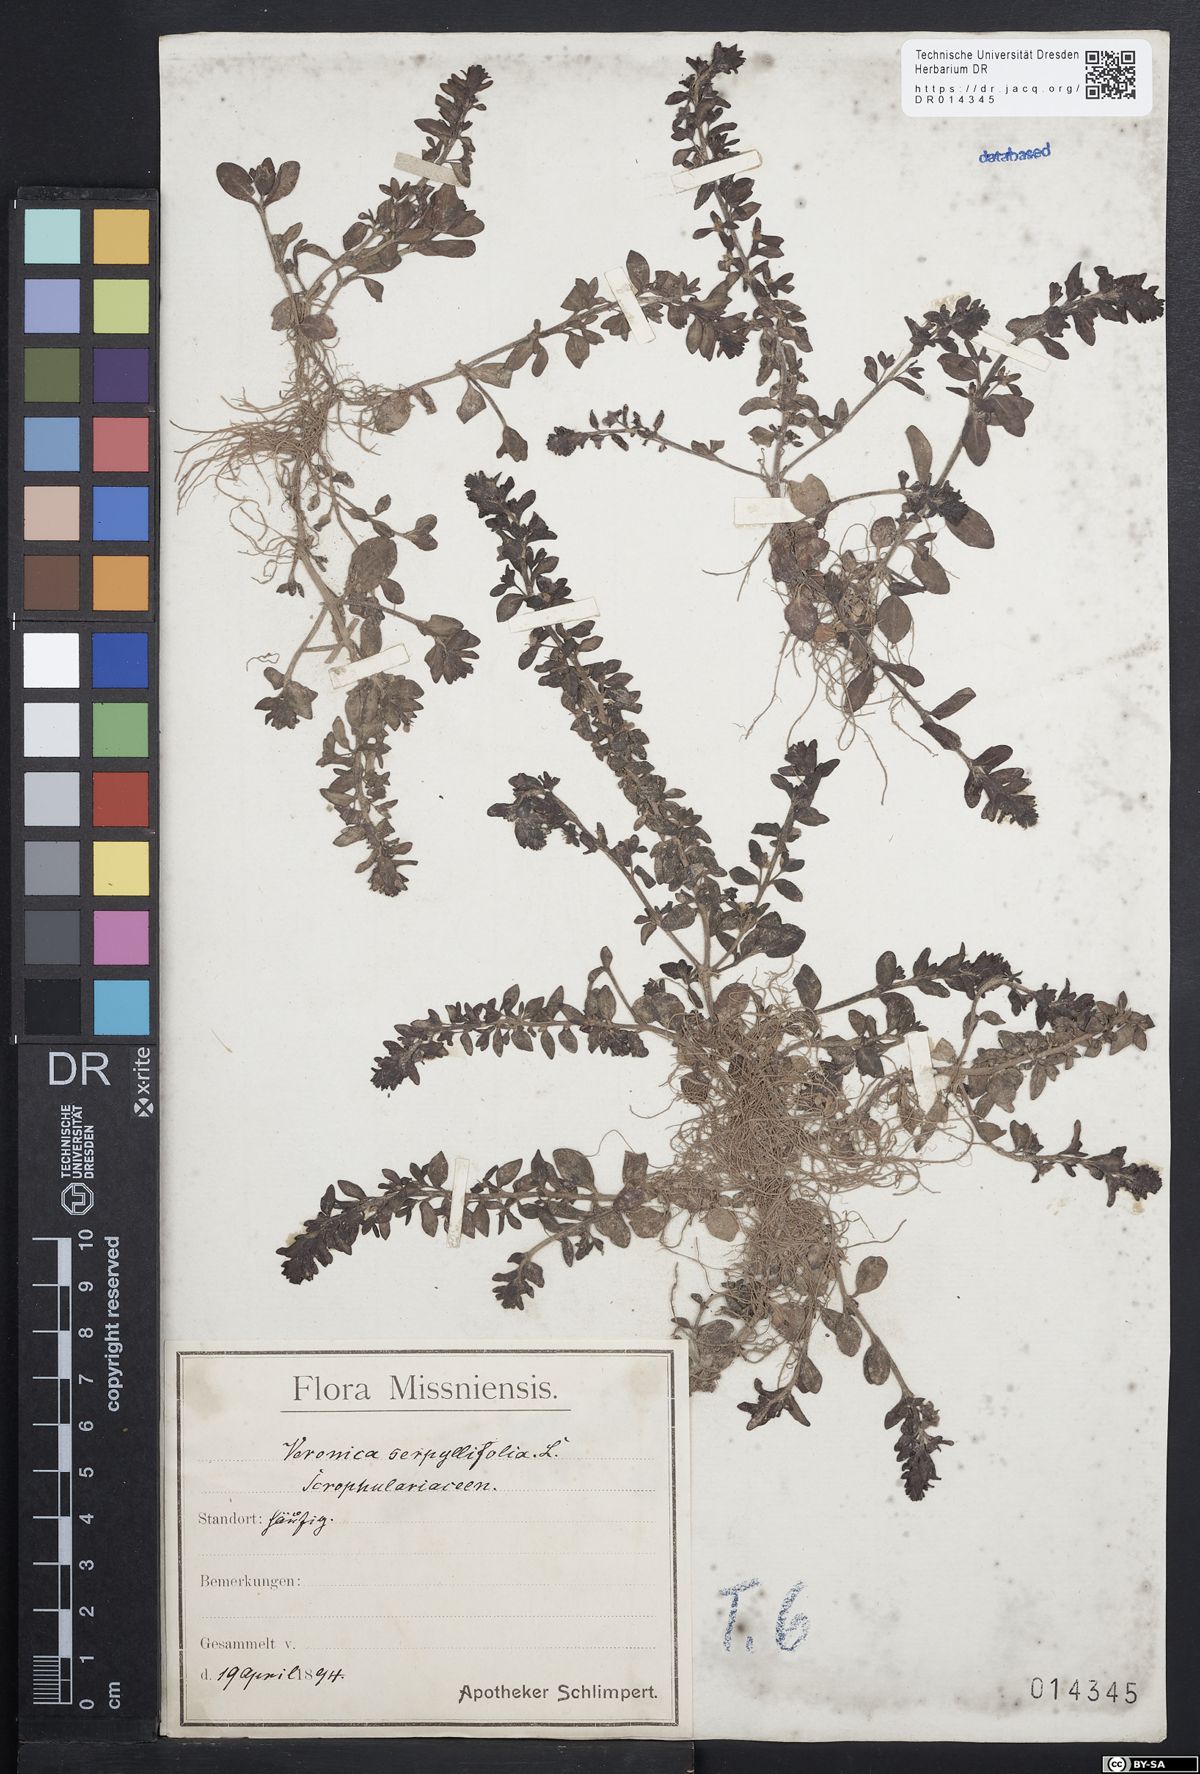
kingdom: Plantae
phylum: Tracheophyta
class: Magnoliopsida
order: Lamiales
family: Plantaginaceae
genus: Veronica
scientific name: Veronica serpyllifolia
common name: Thyme-leaved speedwell
